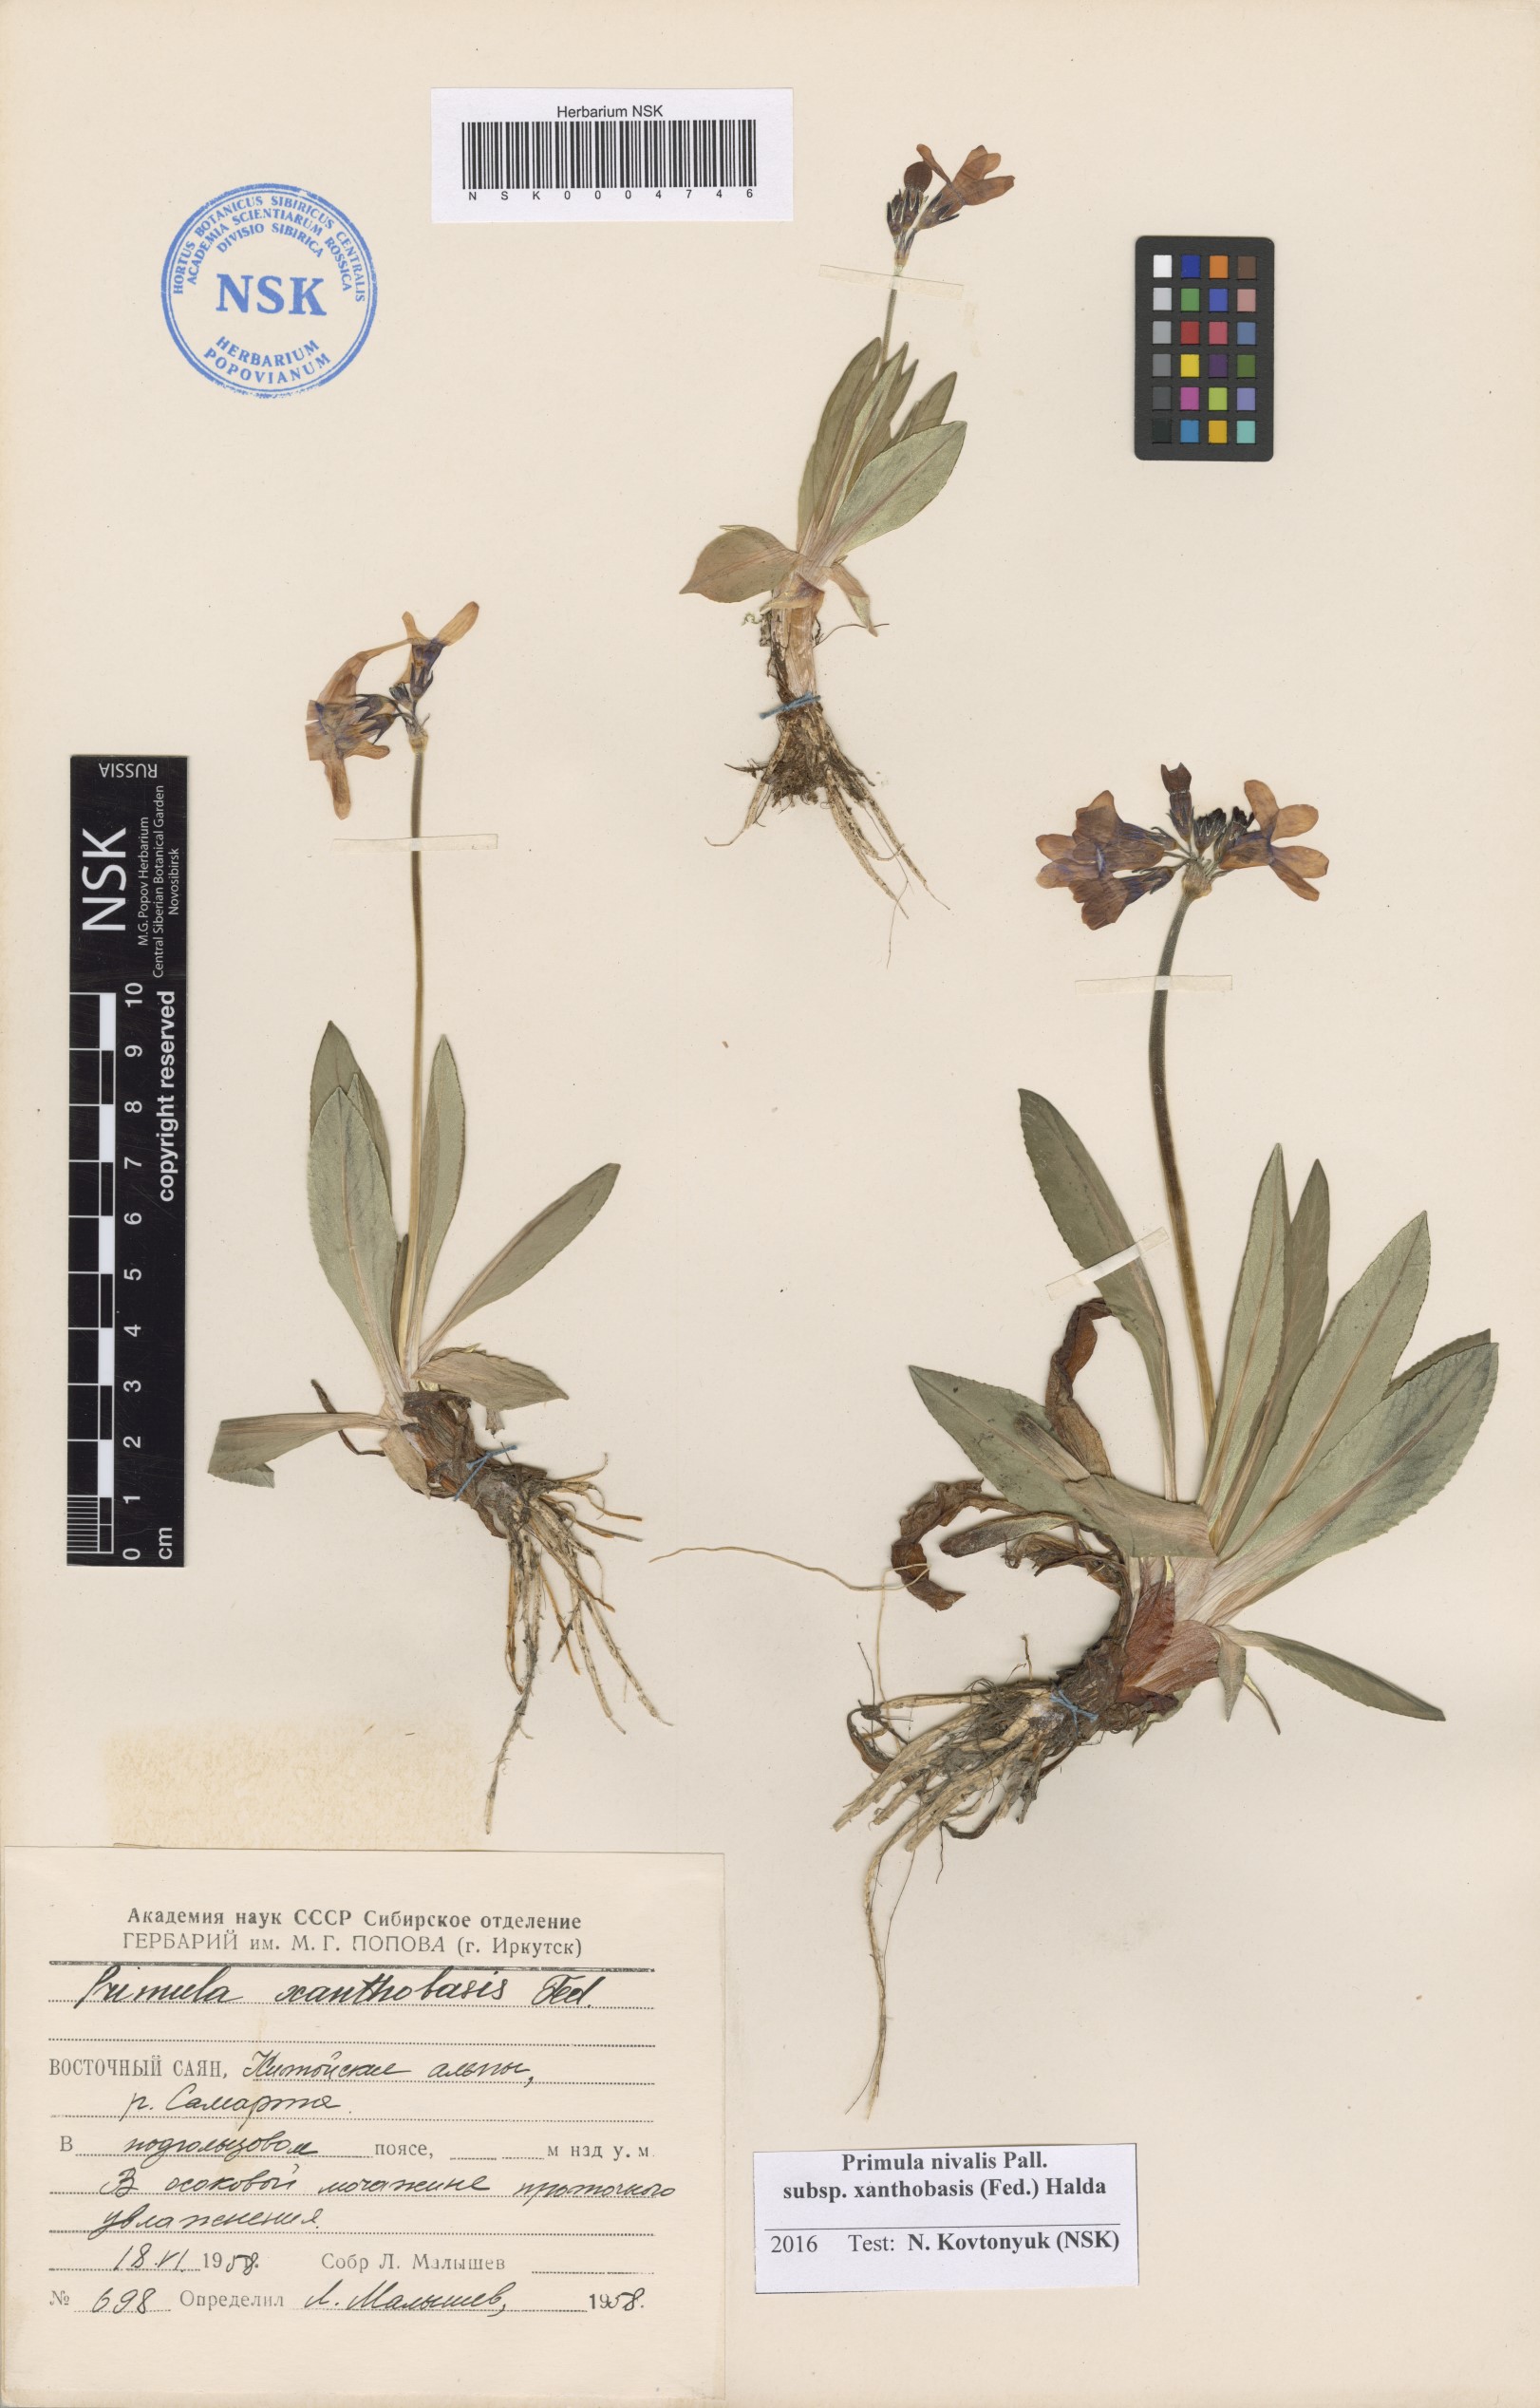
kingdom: Plantae
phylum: Tracheophyta
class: Magnoliopsida
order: Ericales
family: Primulaceae
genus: Primula
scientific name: Primula nivalis
